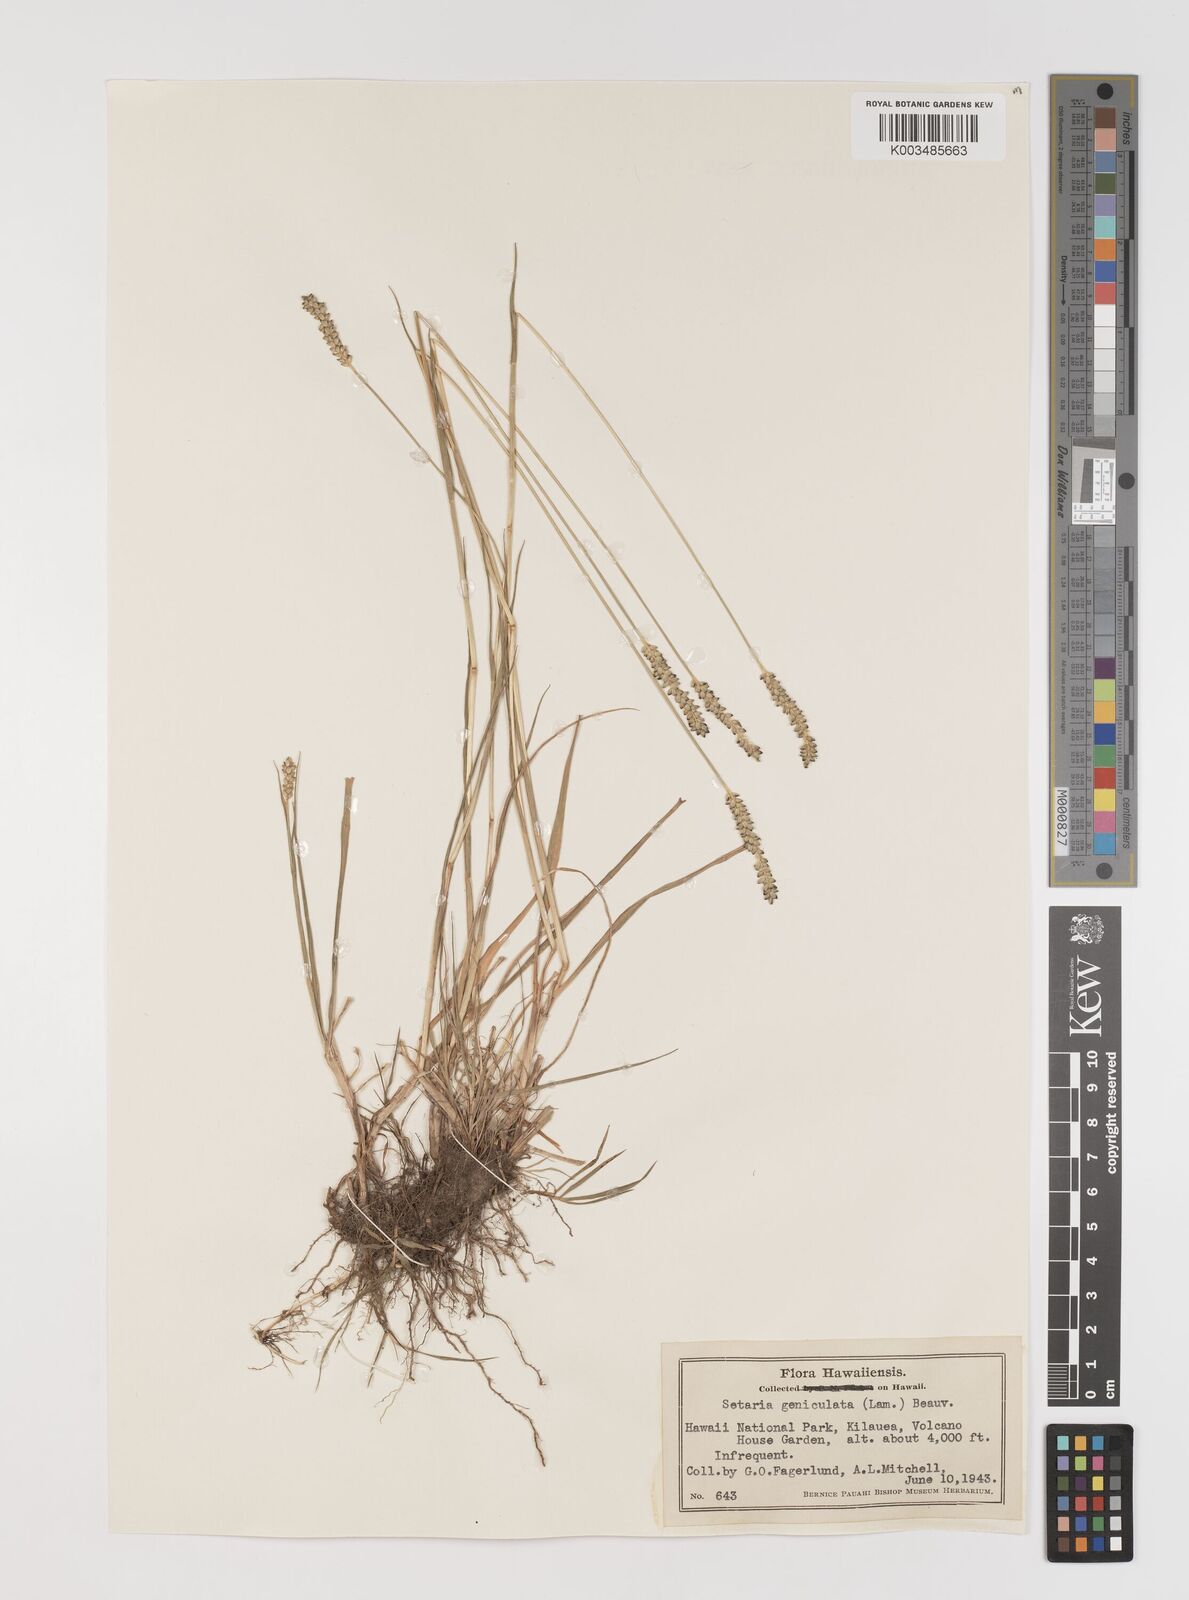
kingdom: Plantae
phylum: Tracheophyta
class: Liliopsida
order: Poales
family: Poaceae
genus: Setaria
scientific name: Setaria parviflora
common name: Knotroot bristle-grass
